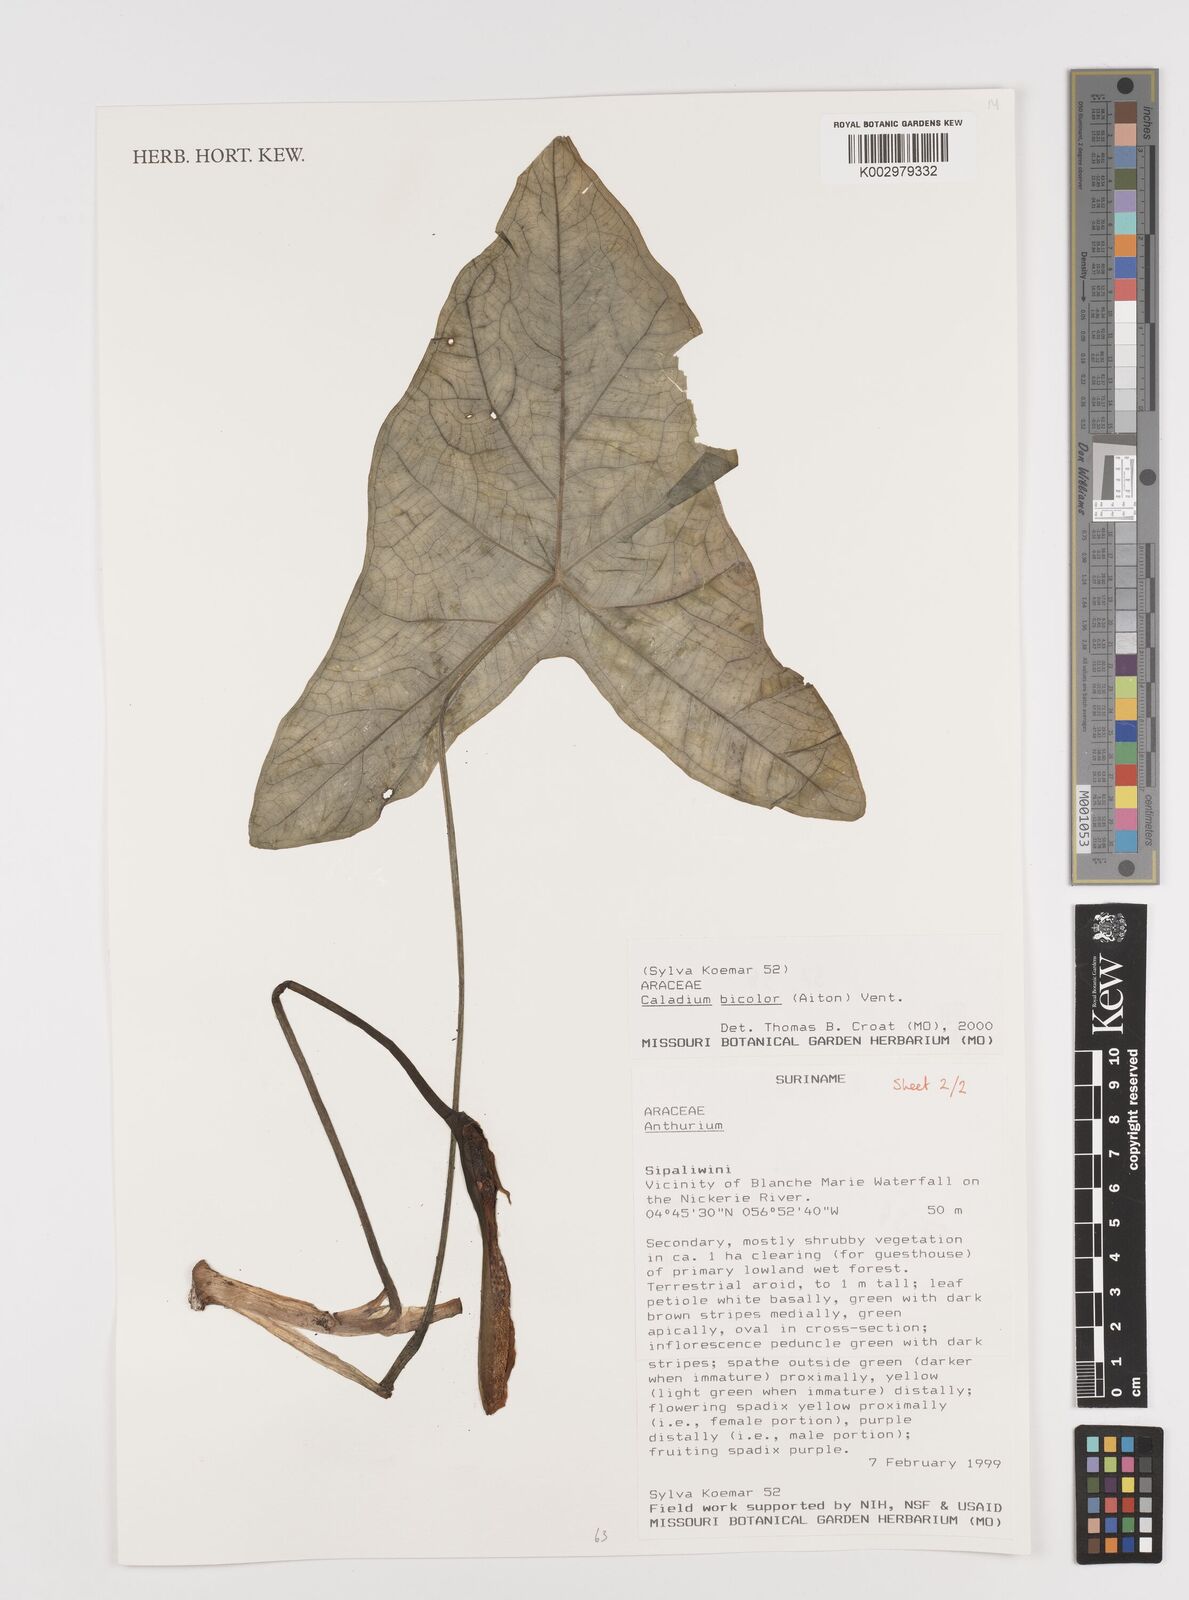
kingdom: Plantae
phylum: Tracheophyta
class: Liliopsida
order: Alismatales
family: Araceae
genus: Xanthosoma
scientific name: Xanthosoma poecile
